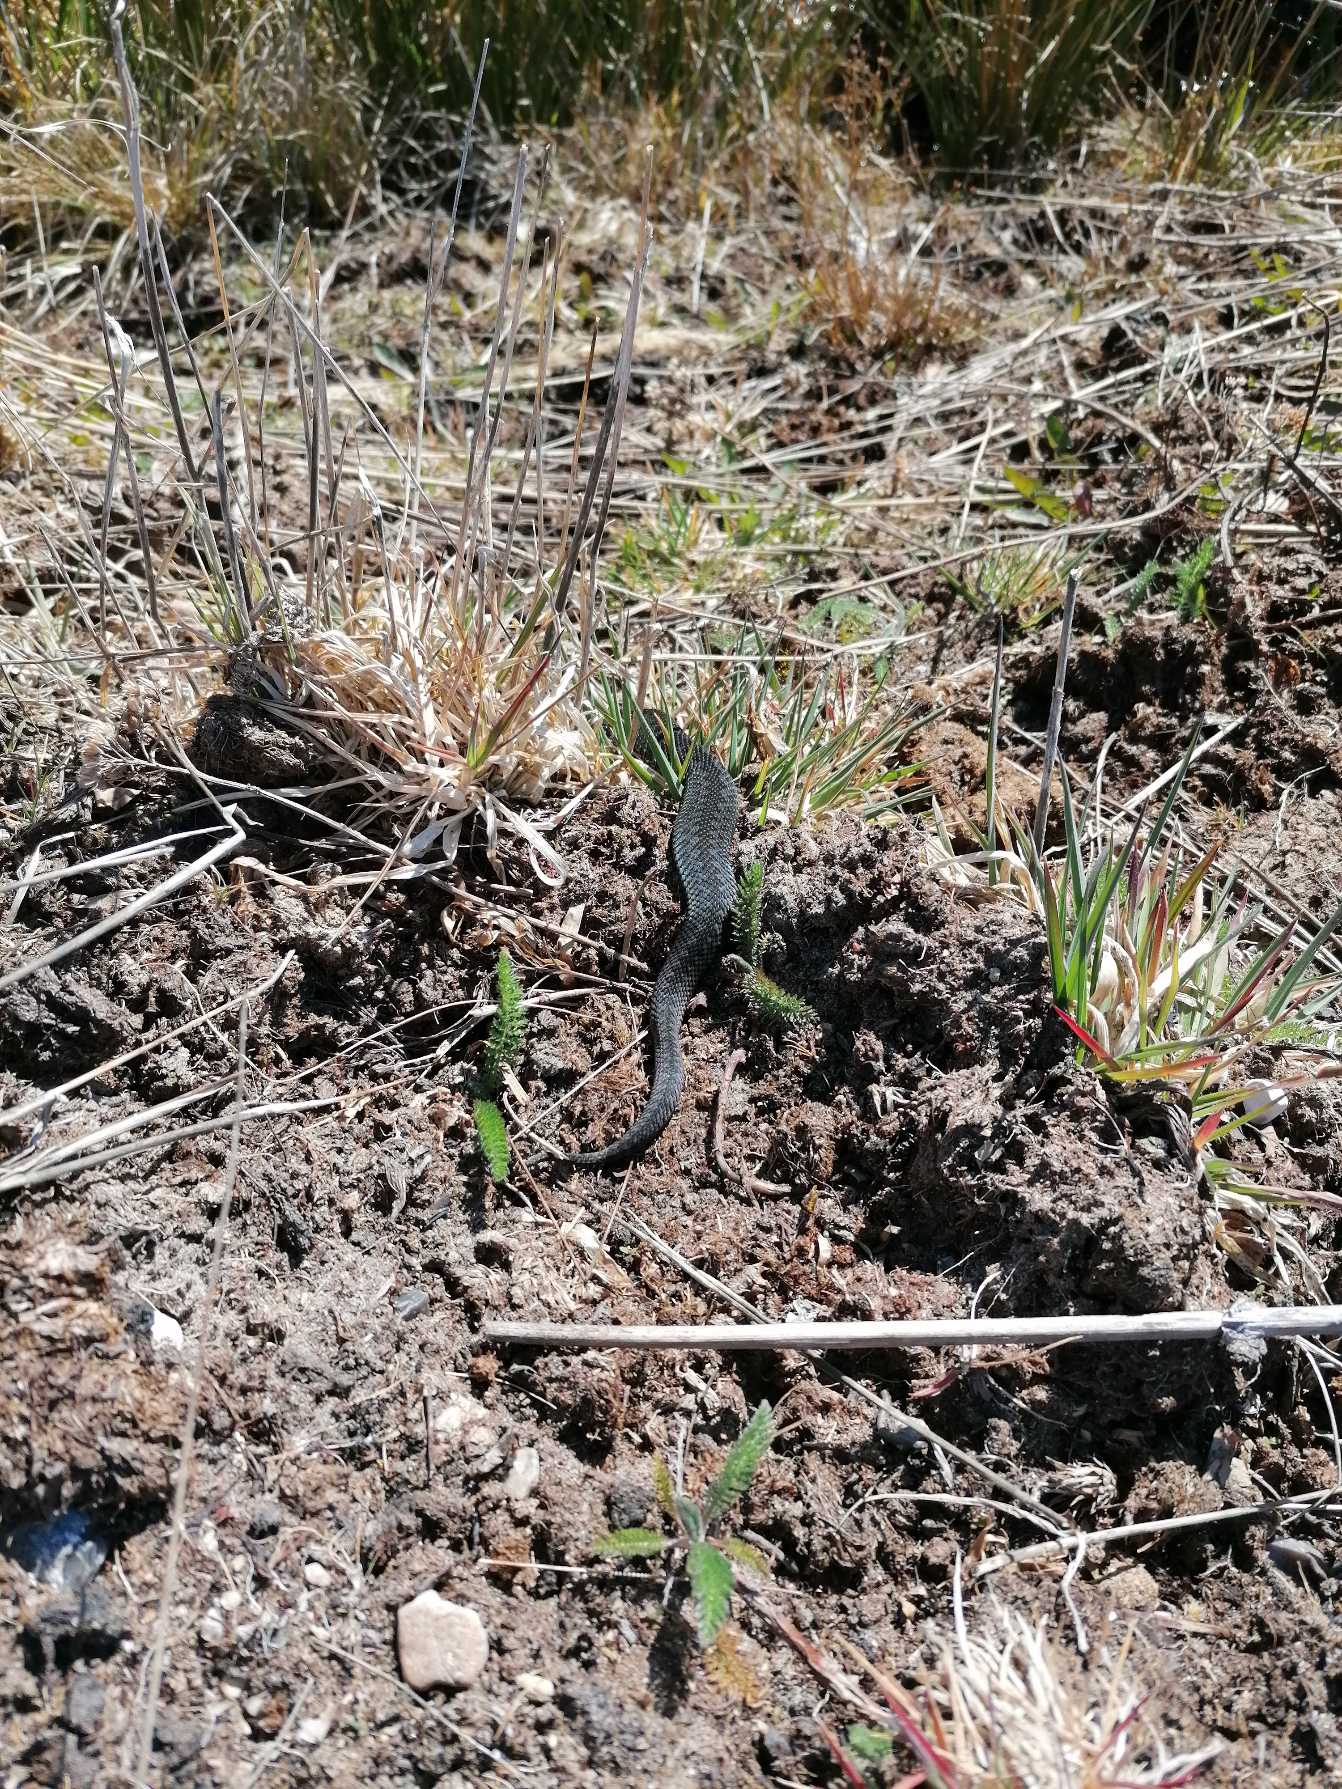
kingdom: Animalia
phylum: Chordata
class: Squamata
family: Viperidae
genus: Vipera
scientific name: Vipera berus
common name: Hugorm
